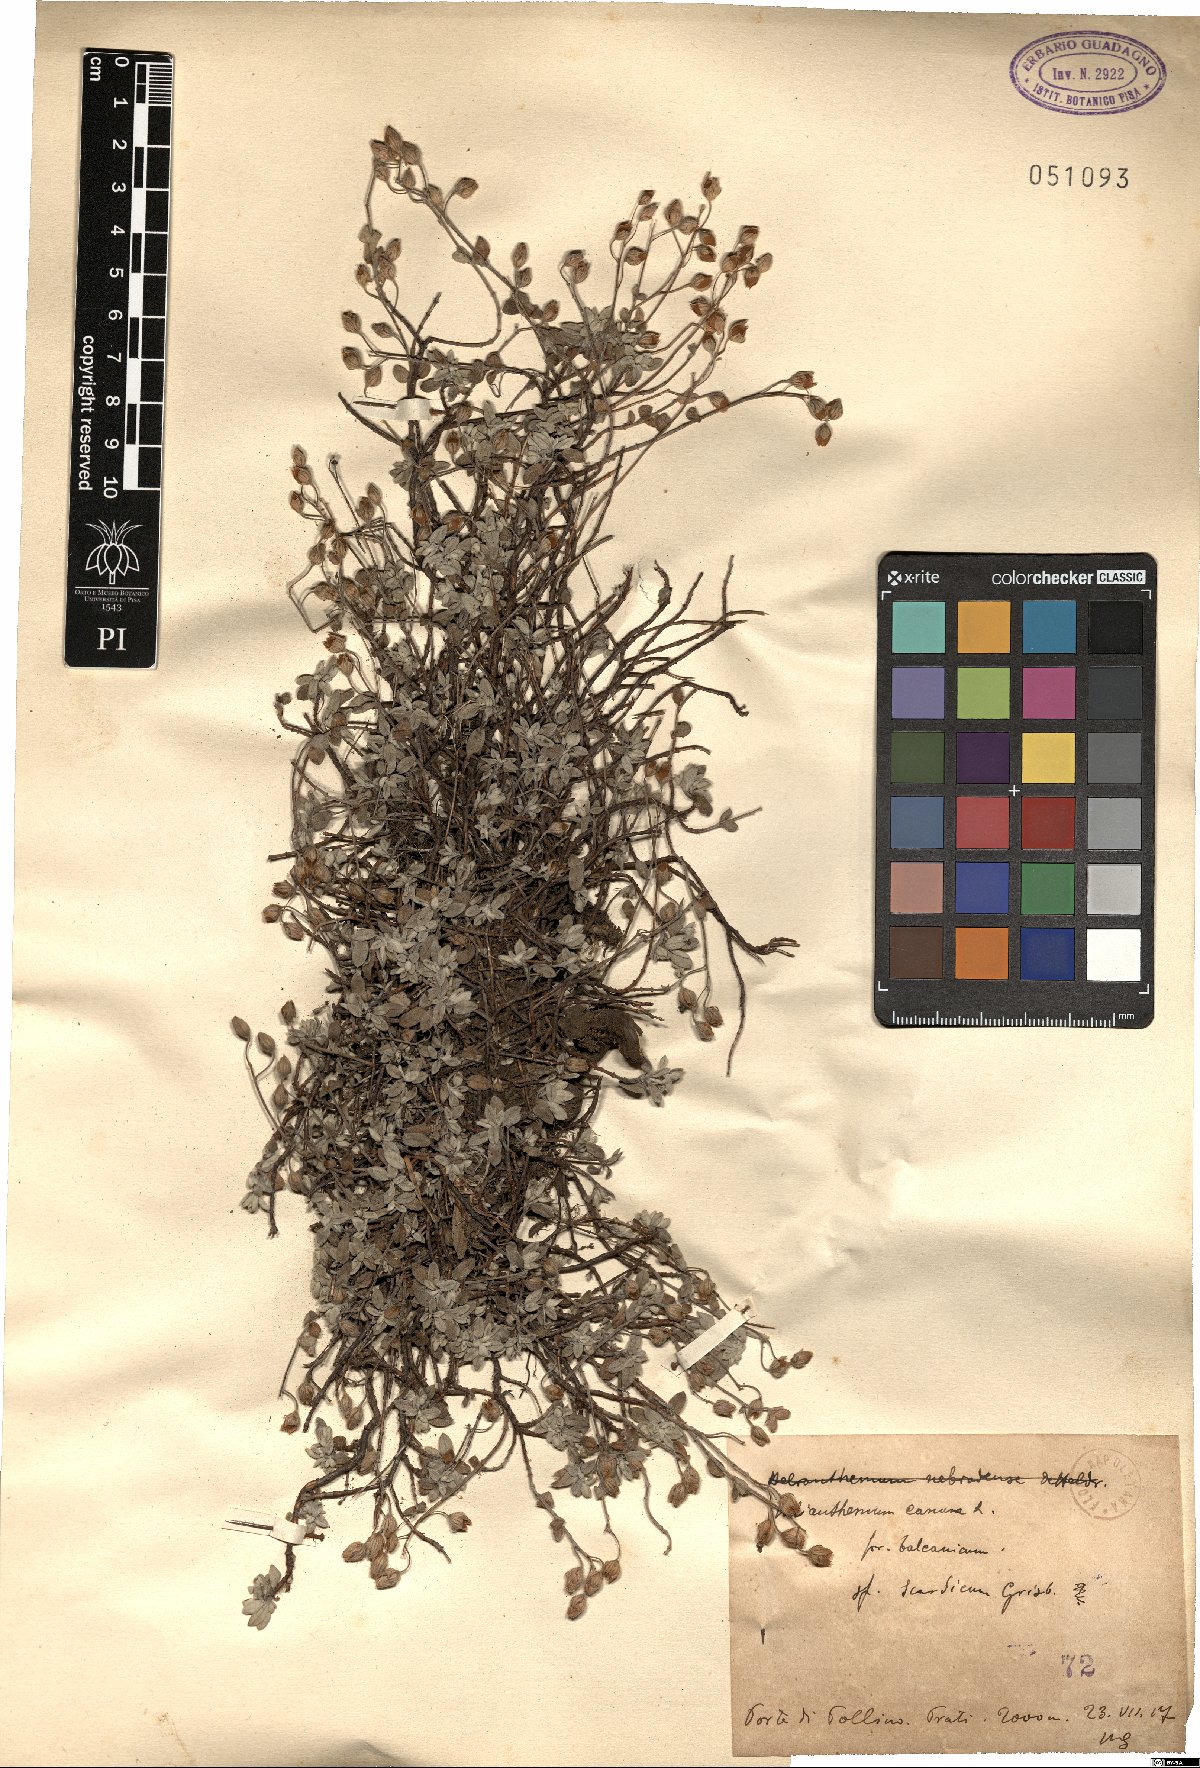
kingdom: Plantae
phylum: Tracheophyta
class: Magnoliopsida
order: Malvales
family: Cistaceae
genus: Helianthemum
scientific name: Helianthemum canum
